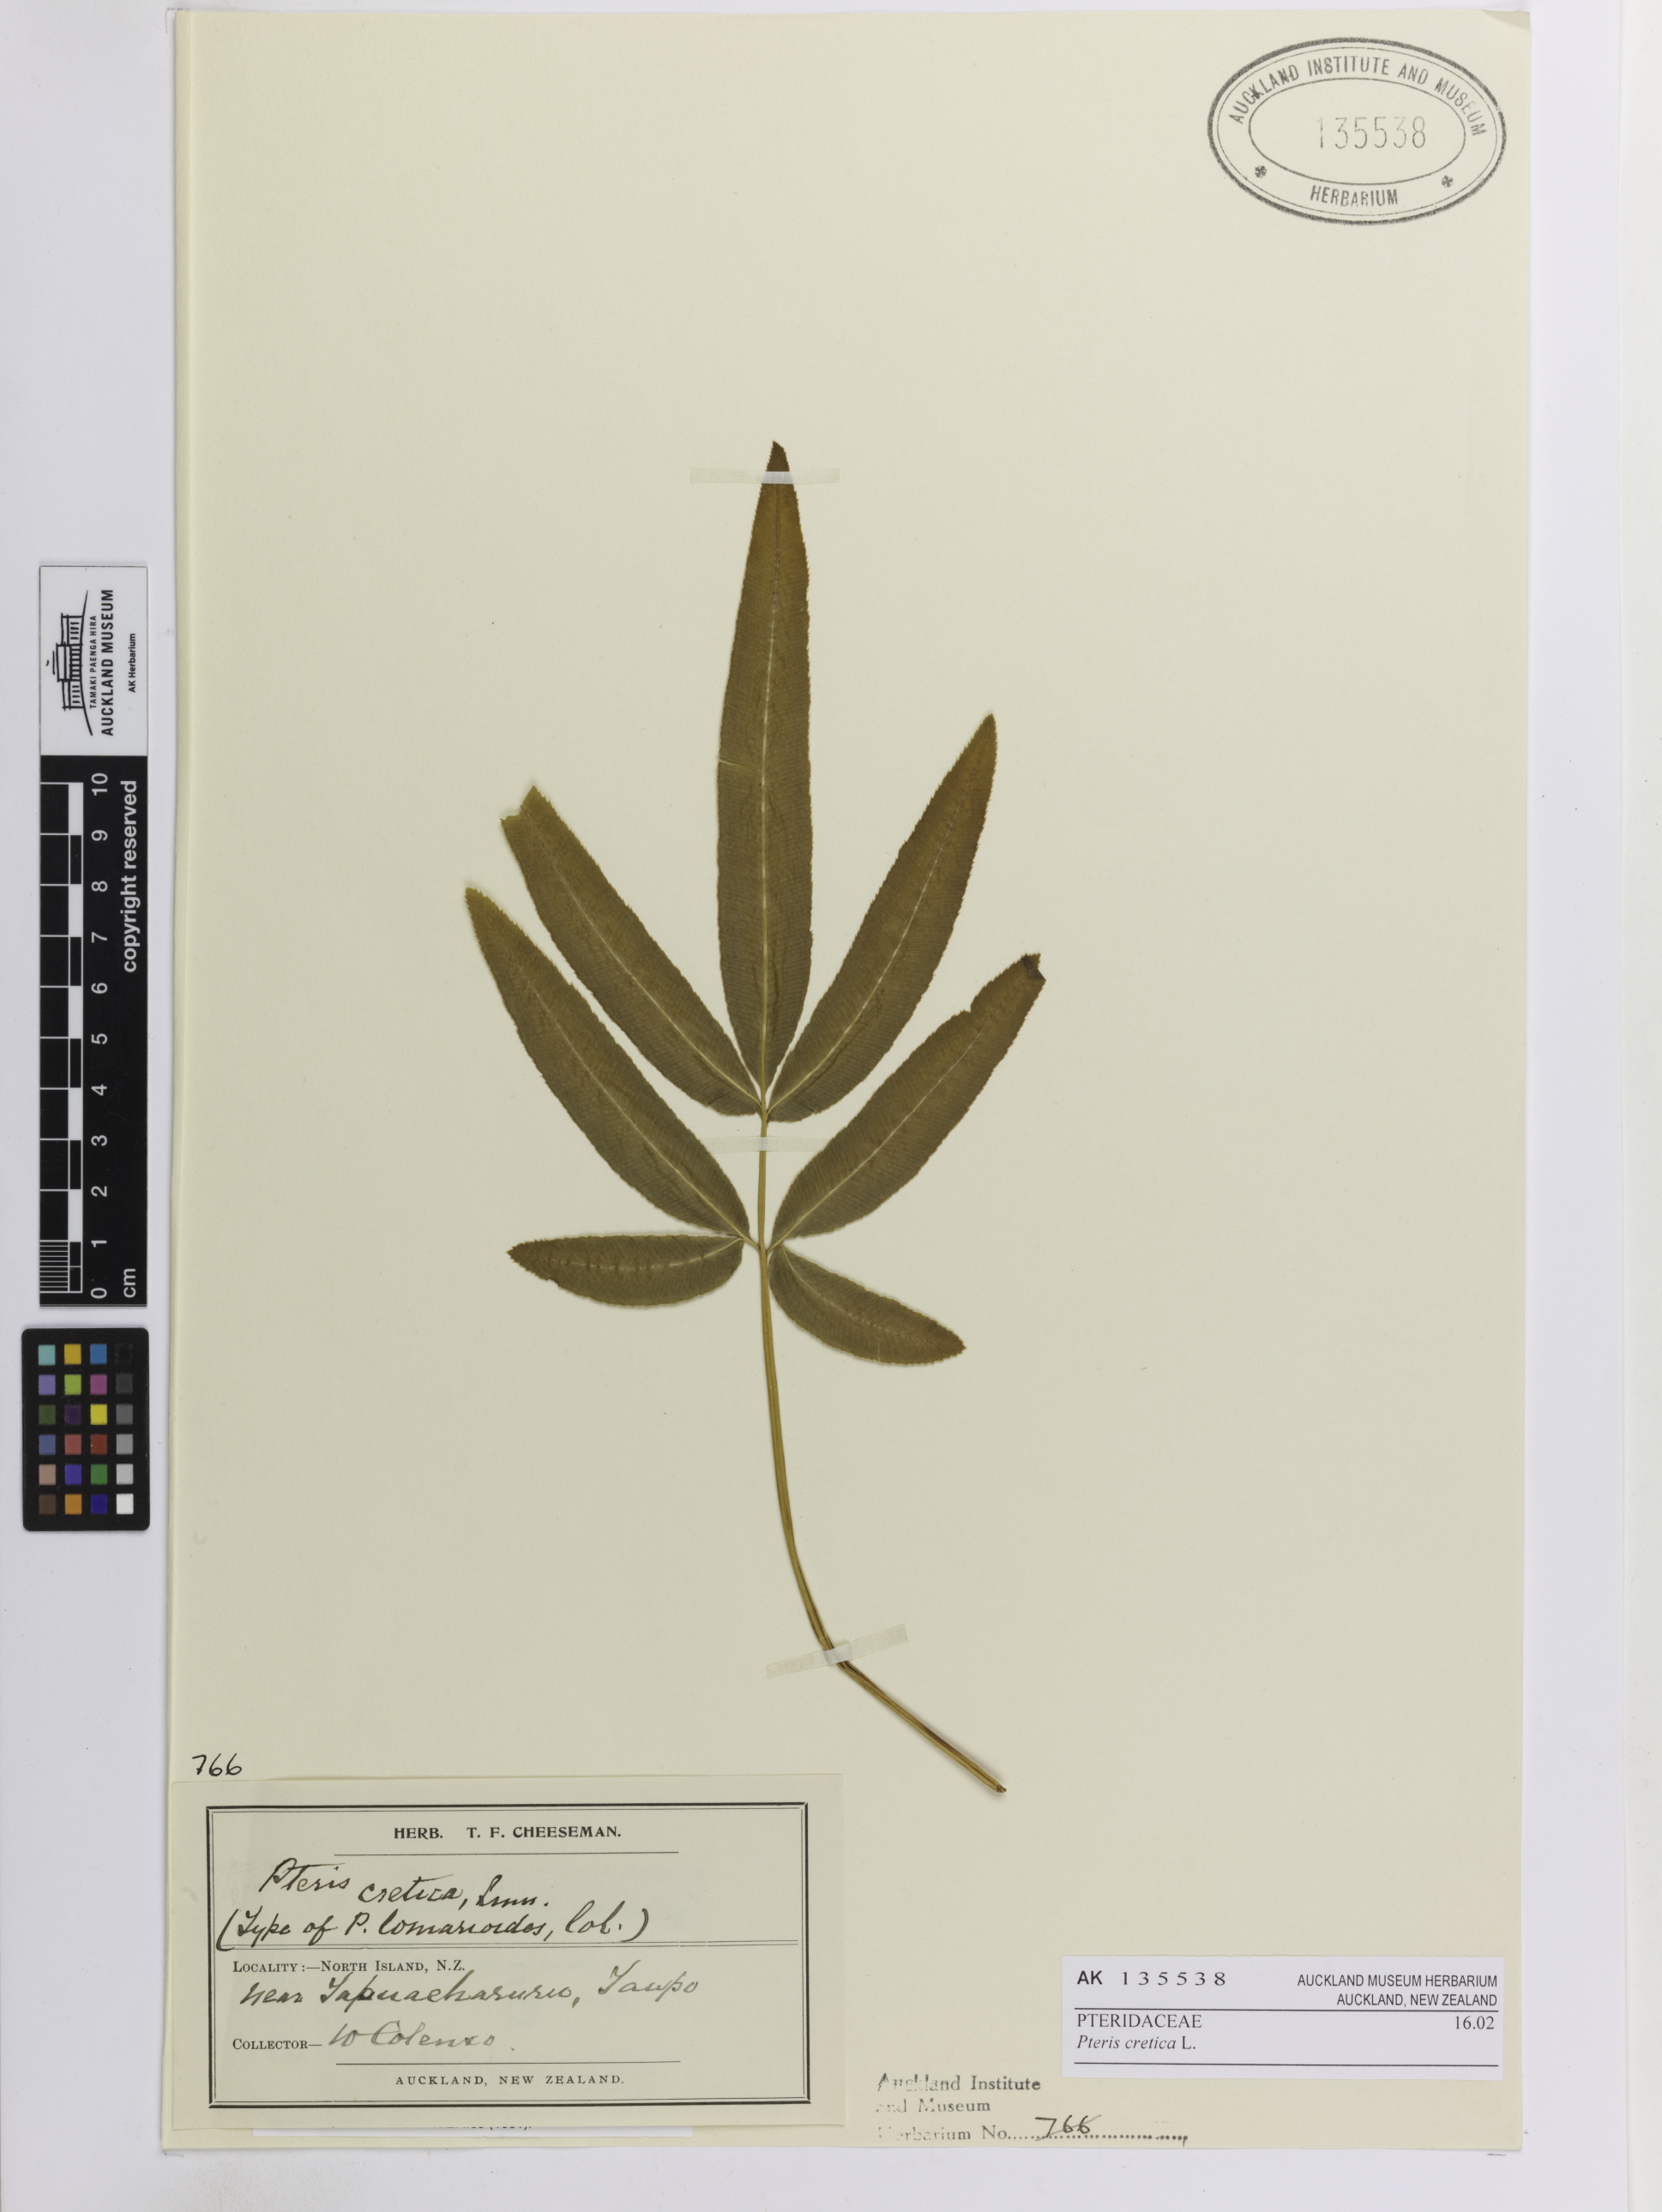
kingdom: Plantae
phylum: Tracheophyta
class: Polypodiopsida
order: Polypodiales
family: Pteridaceae
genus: Pteris
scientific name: Pteris cretica
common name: Ribbon fern
